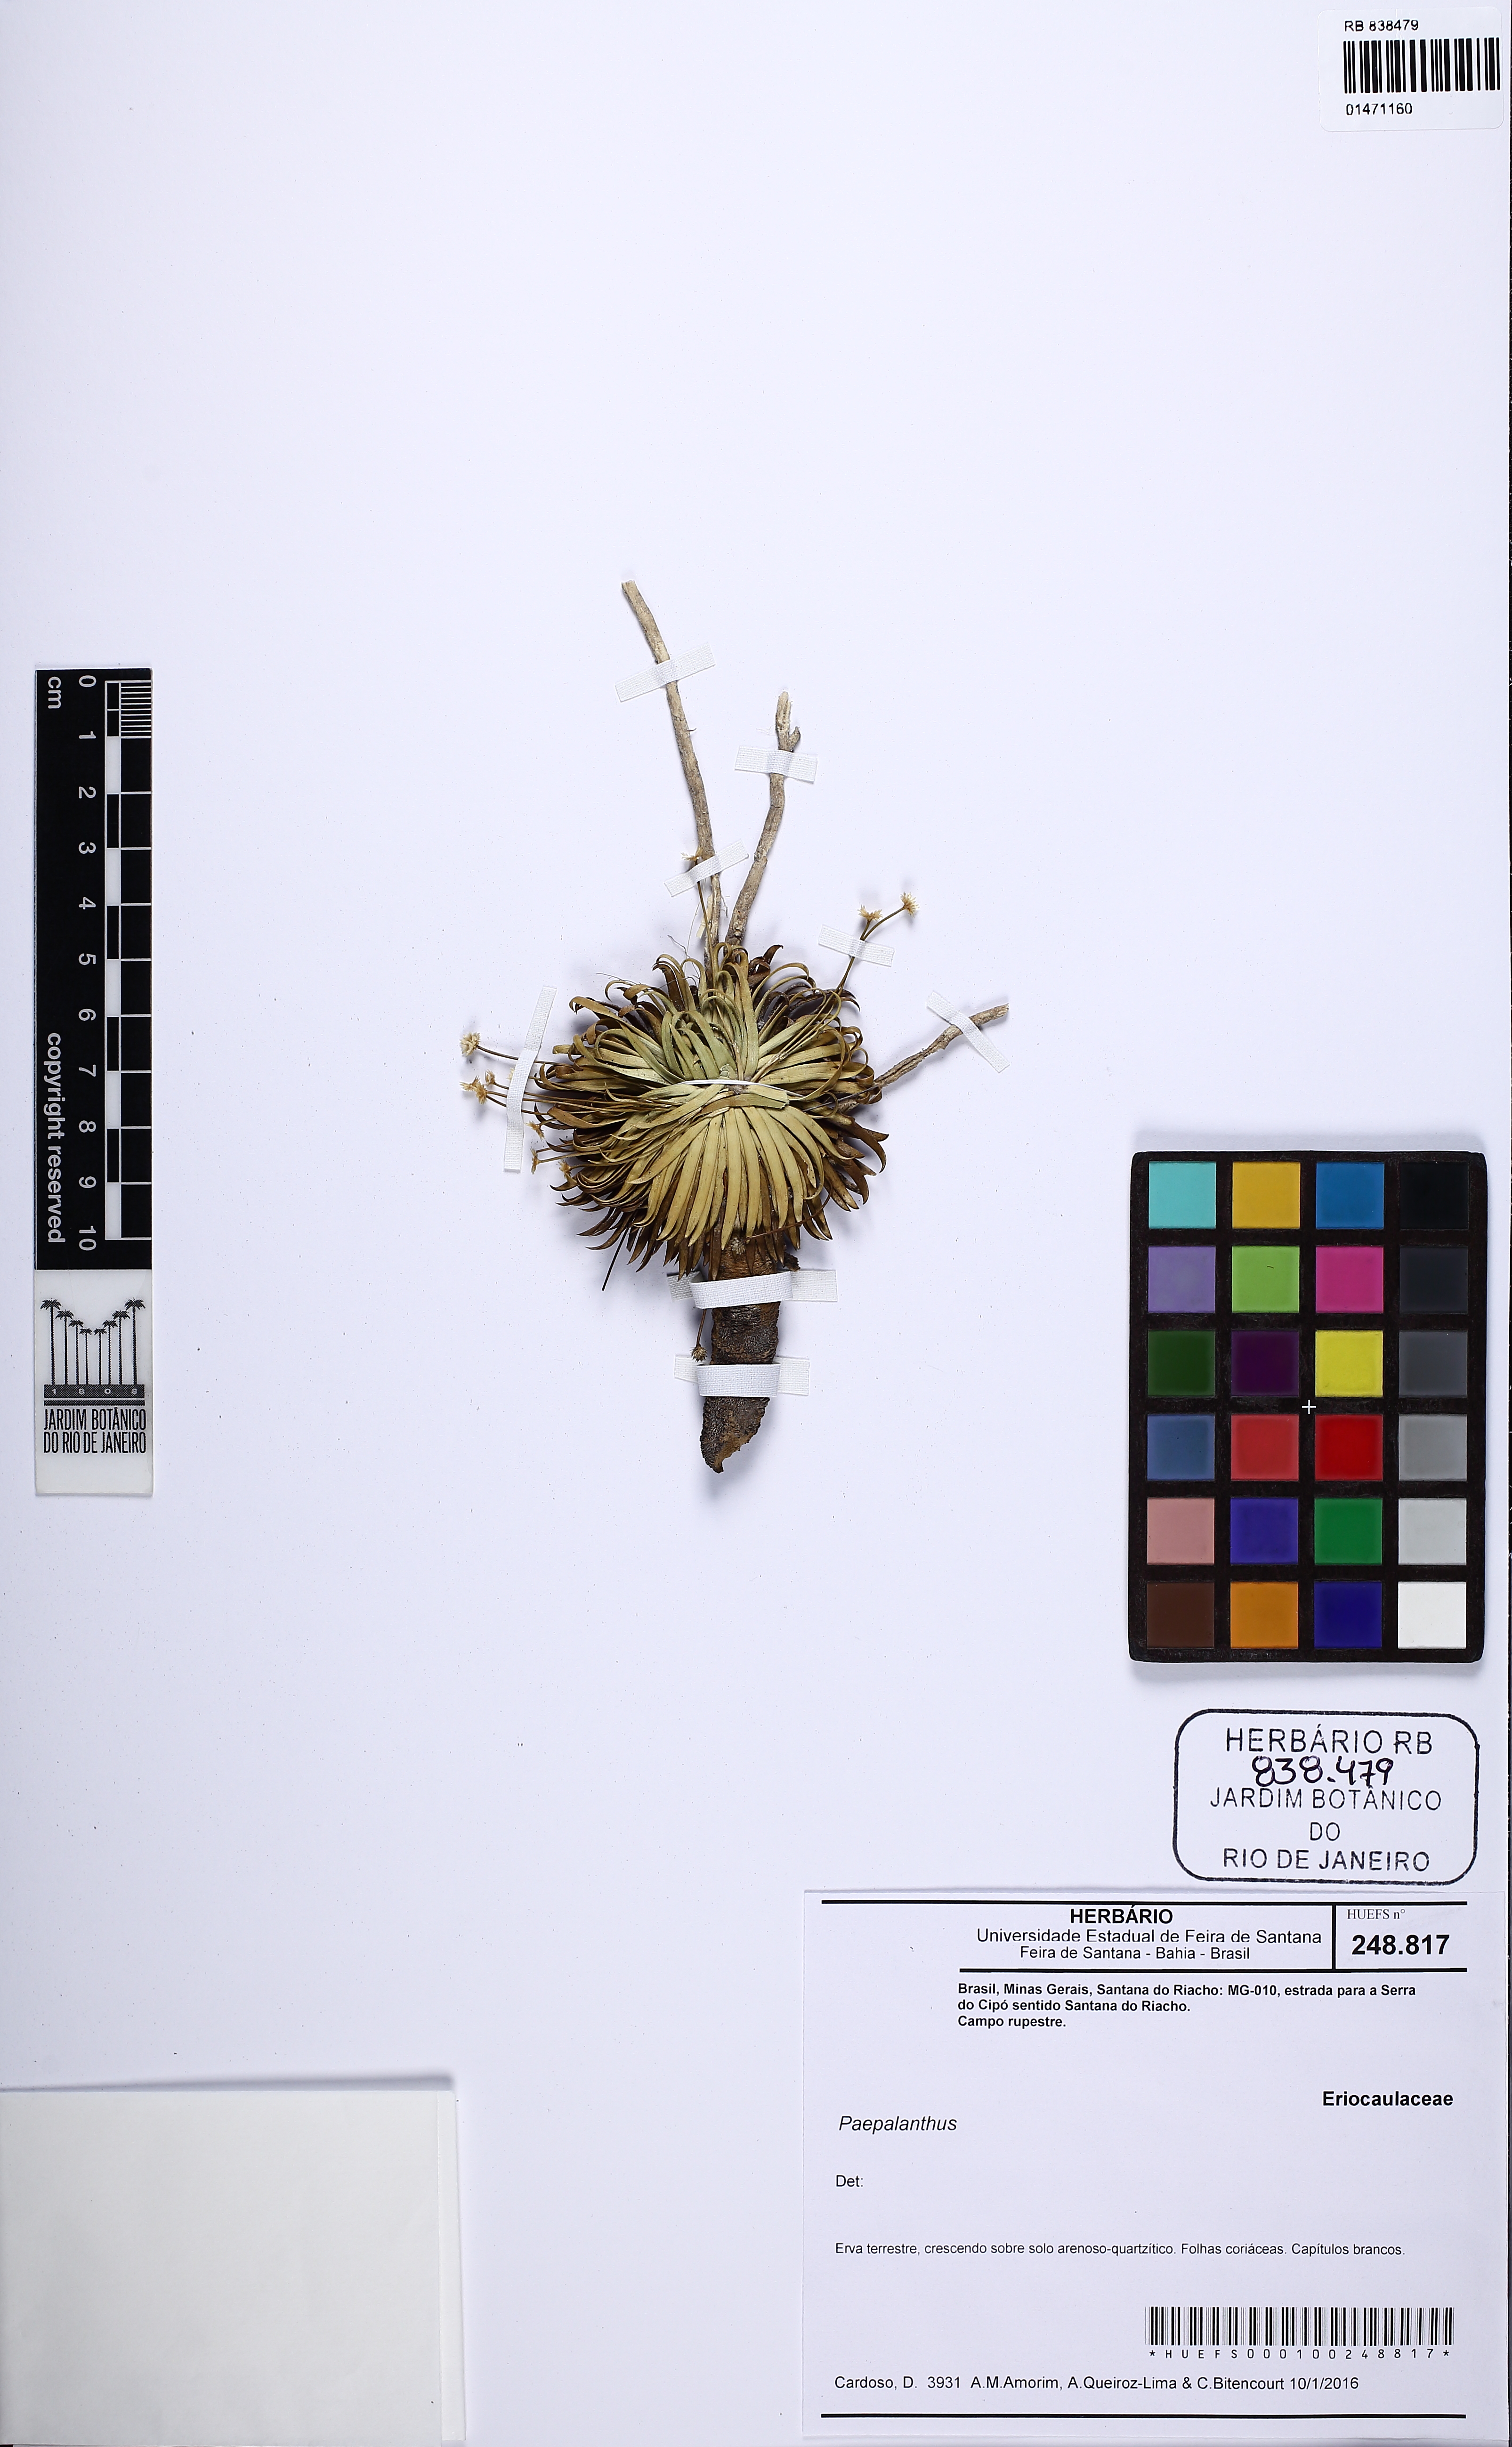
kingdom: Plantae
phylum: Tracheophyta
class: Liliopsida
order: Poales
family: Eriocaulaceae
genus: Leiothrix
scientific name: Leiothrix crassifolia
